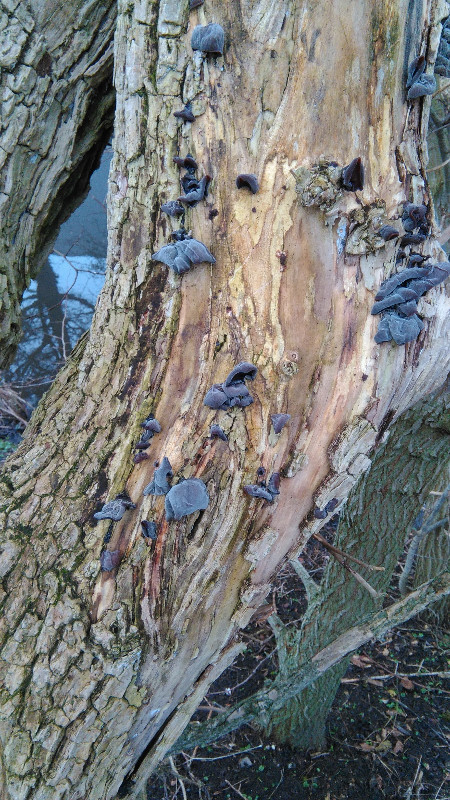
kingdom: Fungi
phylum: Basidiomycota
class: Agaricomycetes
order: Auriculariales
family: Auriculariaceae
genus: Auricularia
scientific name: Auricularia auricula-judae
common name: almindelig judasøre
